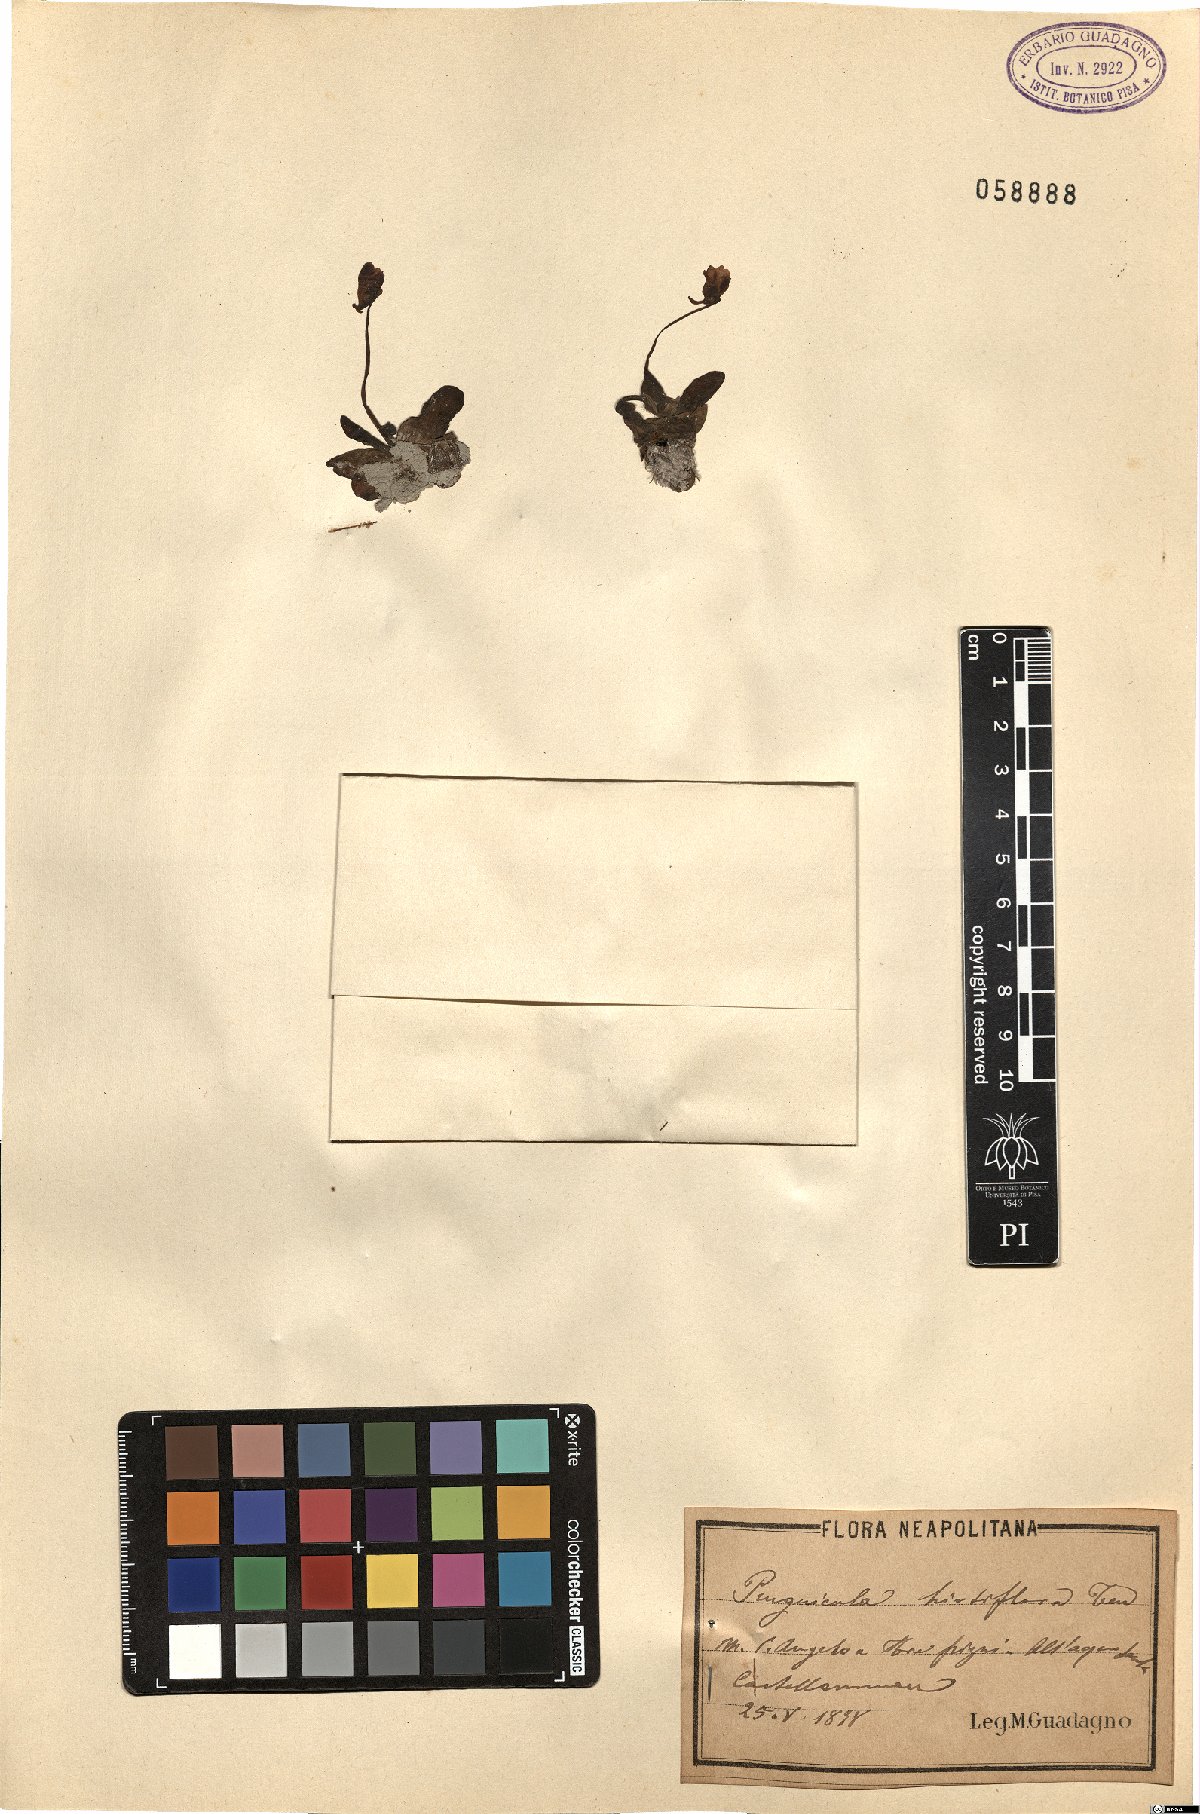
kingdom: Plantae
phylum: Tracheophyta
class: Magnoliopsida
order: Lamiales
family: Lentibulariaceae
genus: Pinguicula
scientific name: Pinguicula crystallina
